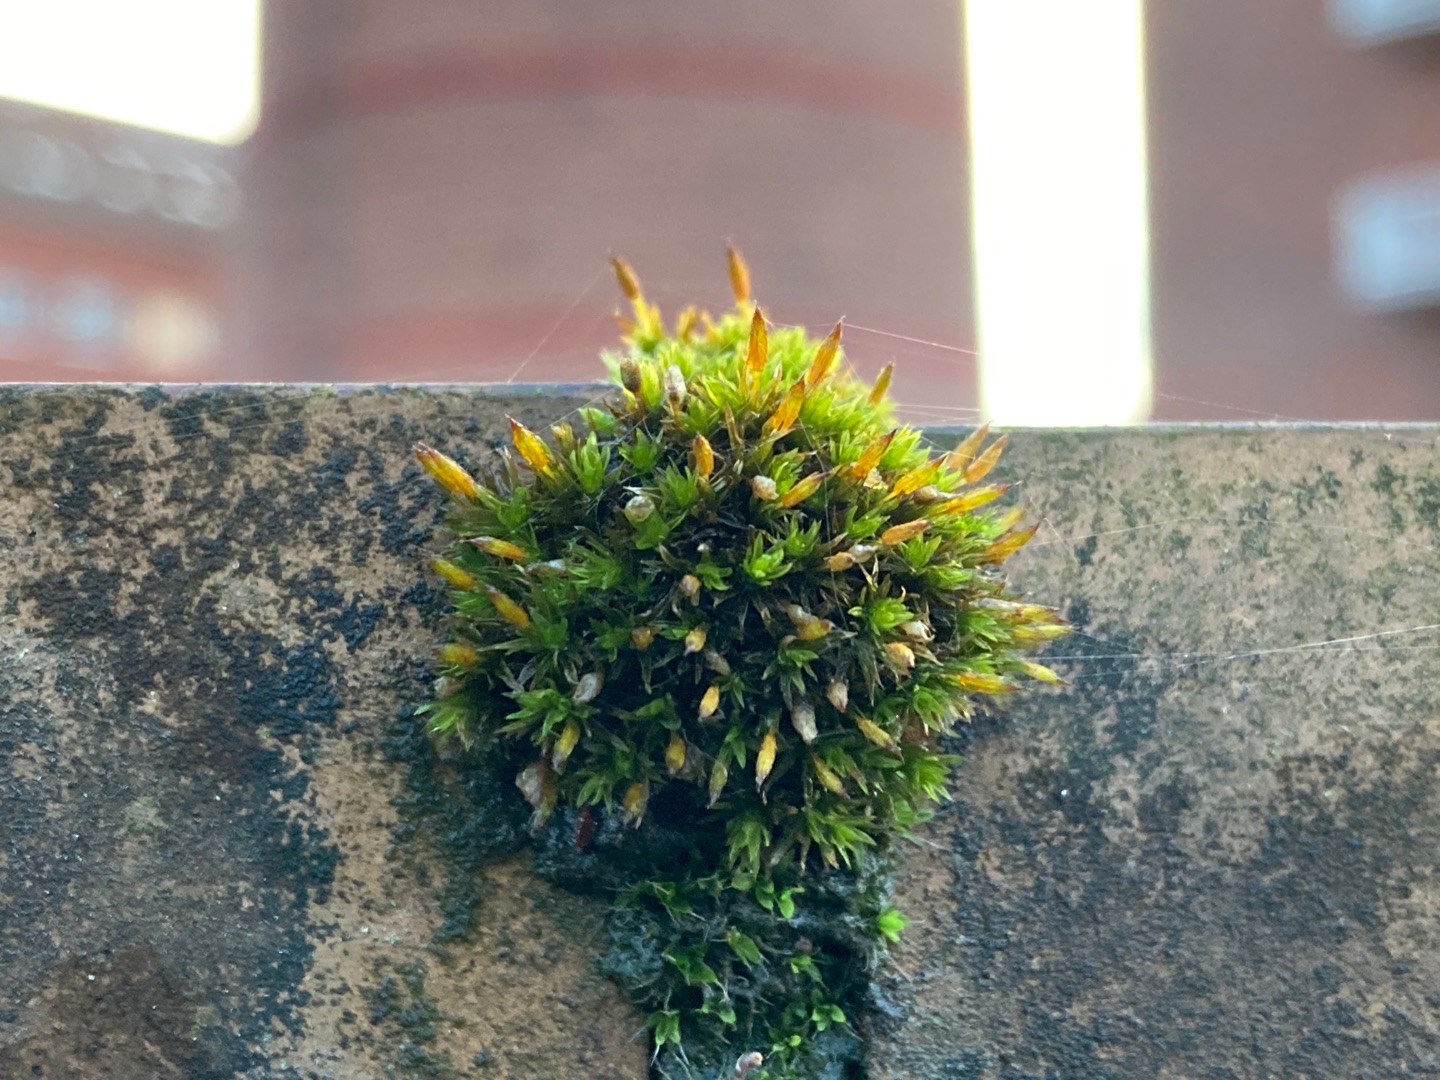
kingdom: Plantae
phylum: Bryophyta
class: Bryopsida
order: Orthotrichales
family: Orthotrichaceae
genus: Orthotrichum
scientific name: Orthotrichum anomalum
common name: Mørk furehætte
